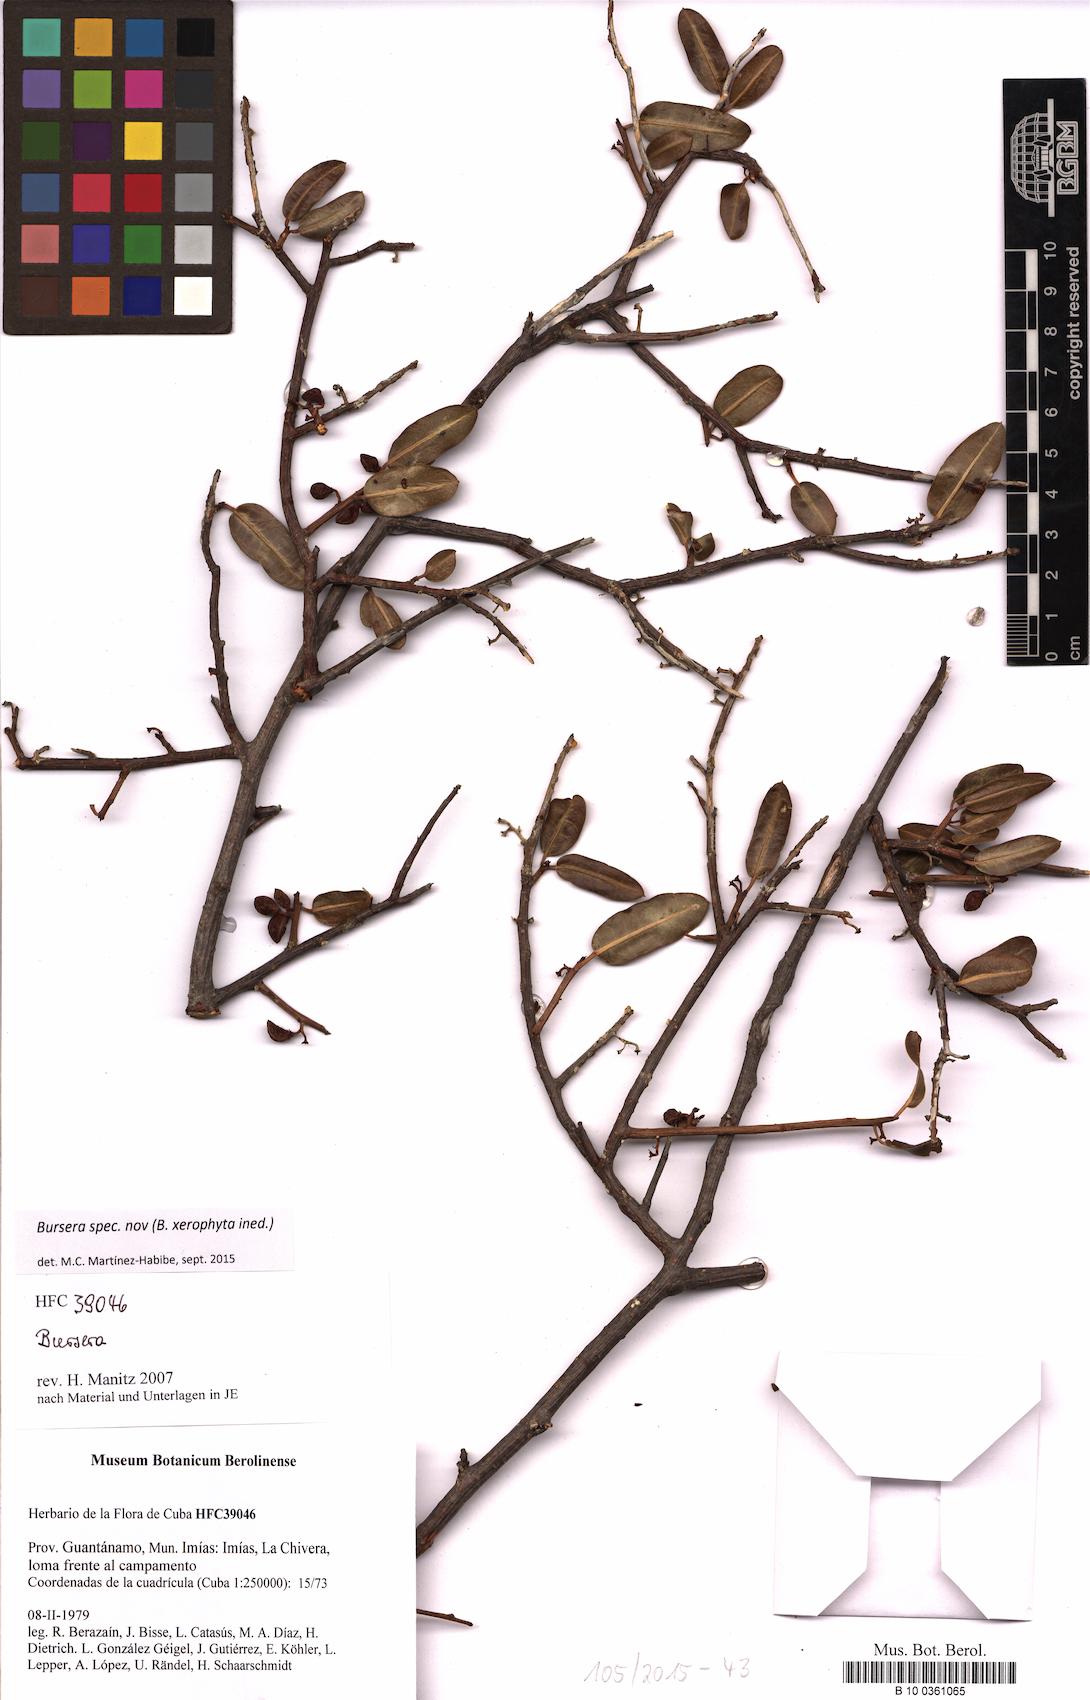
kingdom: Plantae
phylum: Tracheophyta
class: Magnoliopsida
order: Sapindales
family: Burseraceae
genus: Bursera
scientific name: Bursera
